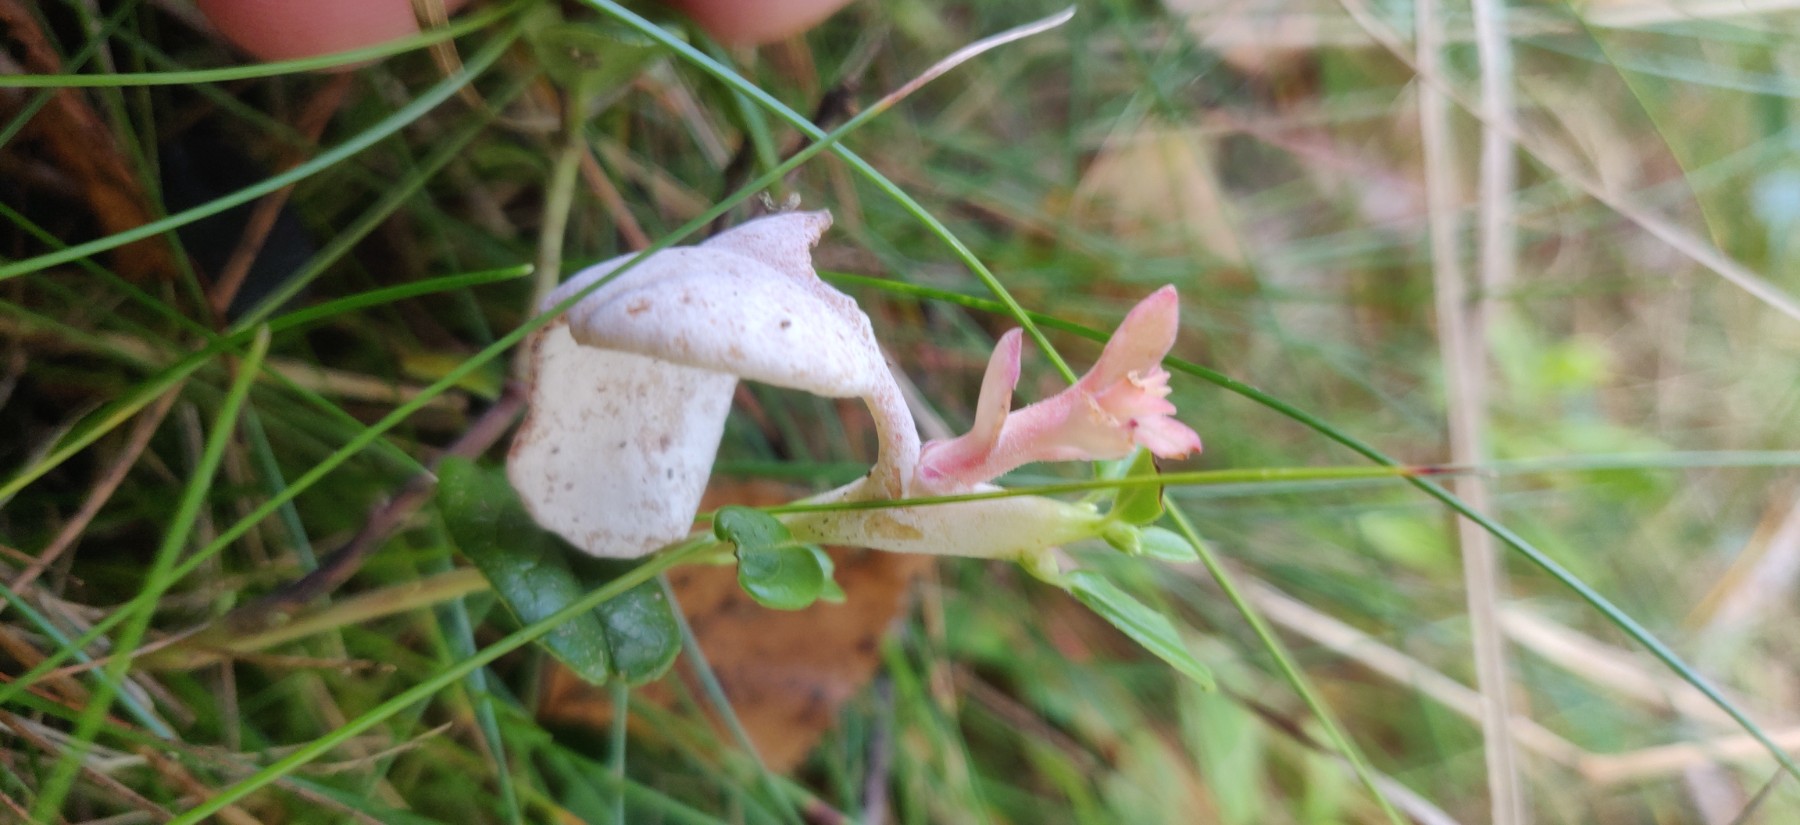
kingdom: Fungi
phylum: Basidiomycota
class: Exobasidiomycetes
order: Exobasidiales
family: Exobasidiaceae
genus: Exobasidium
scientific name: Exobasidium vaccinii
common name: tyttebærblad-bøllesvamp
